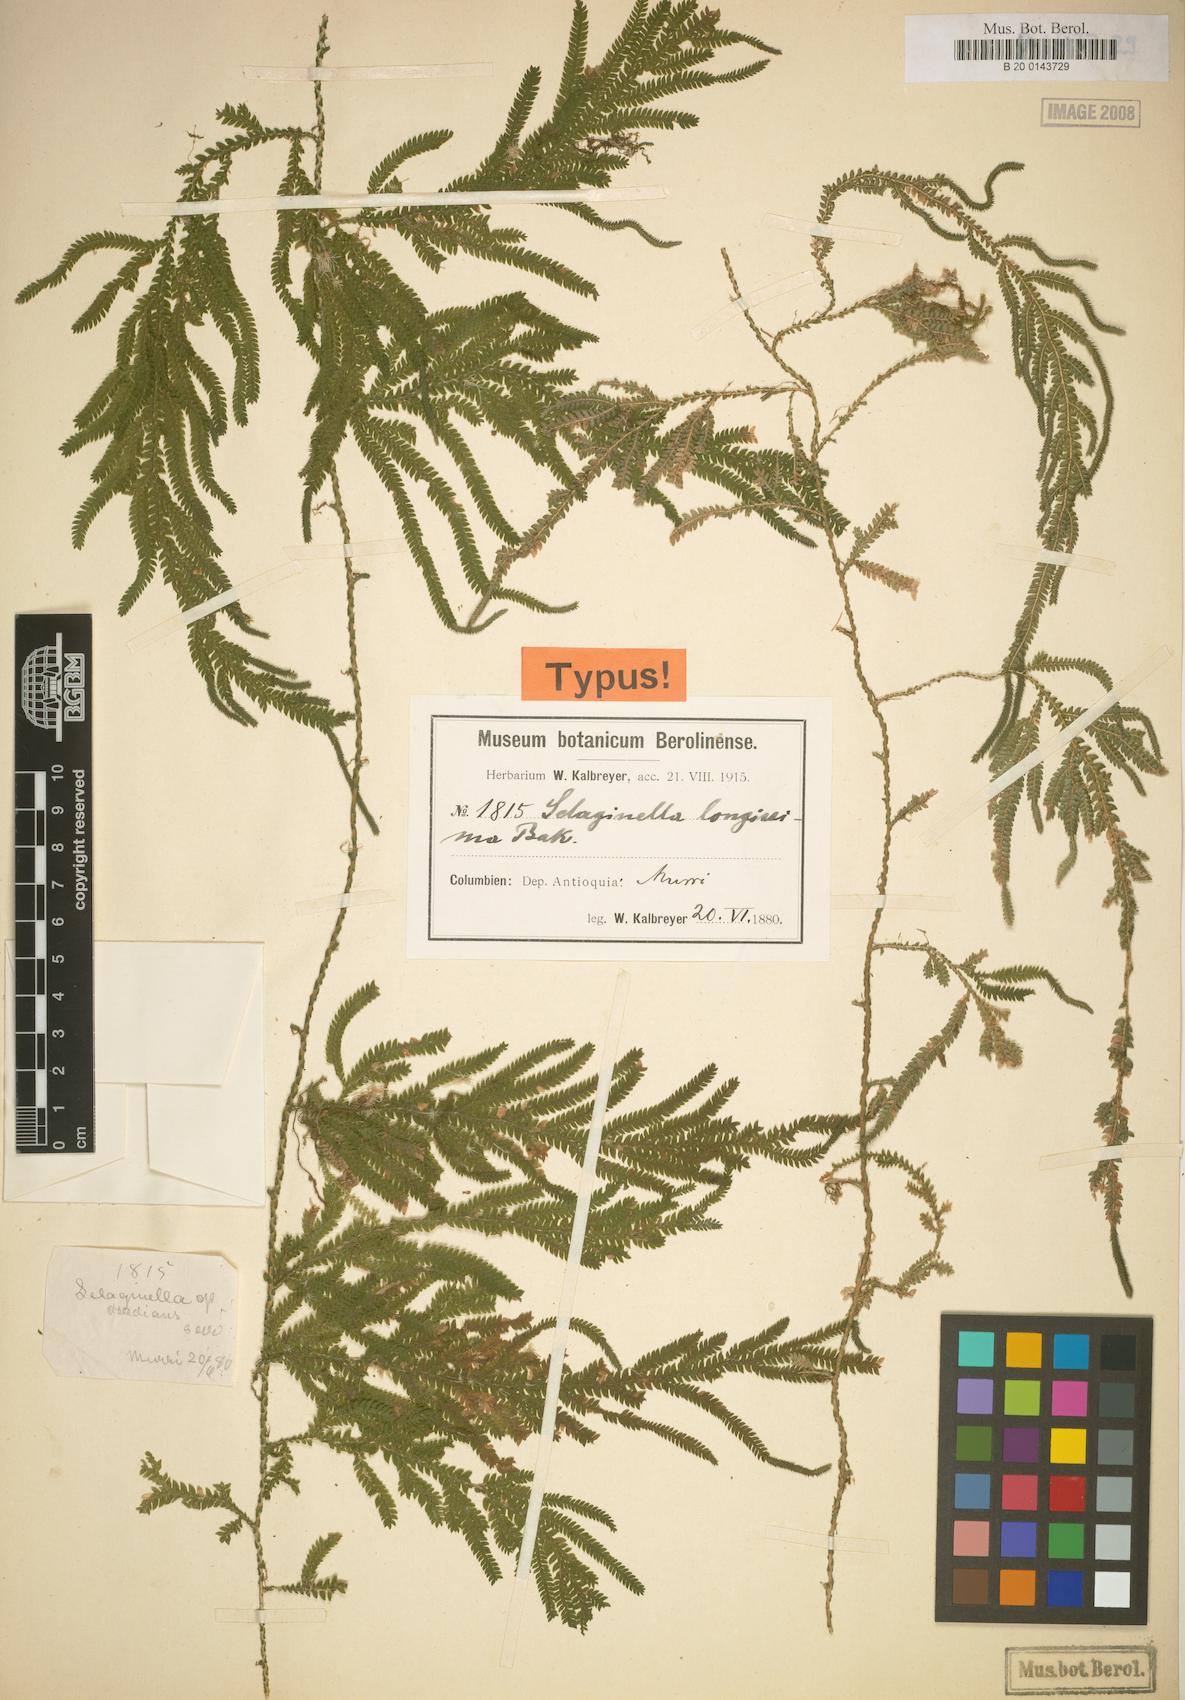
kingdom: Plantae
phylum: Tracheophyta
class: Lycopodiopsida
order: Selaginellales
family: Selaginellaceae
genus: Selaginella
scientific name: Selaginella longissima
